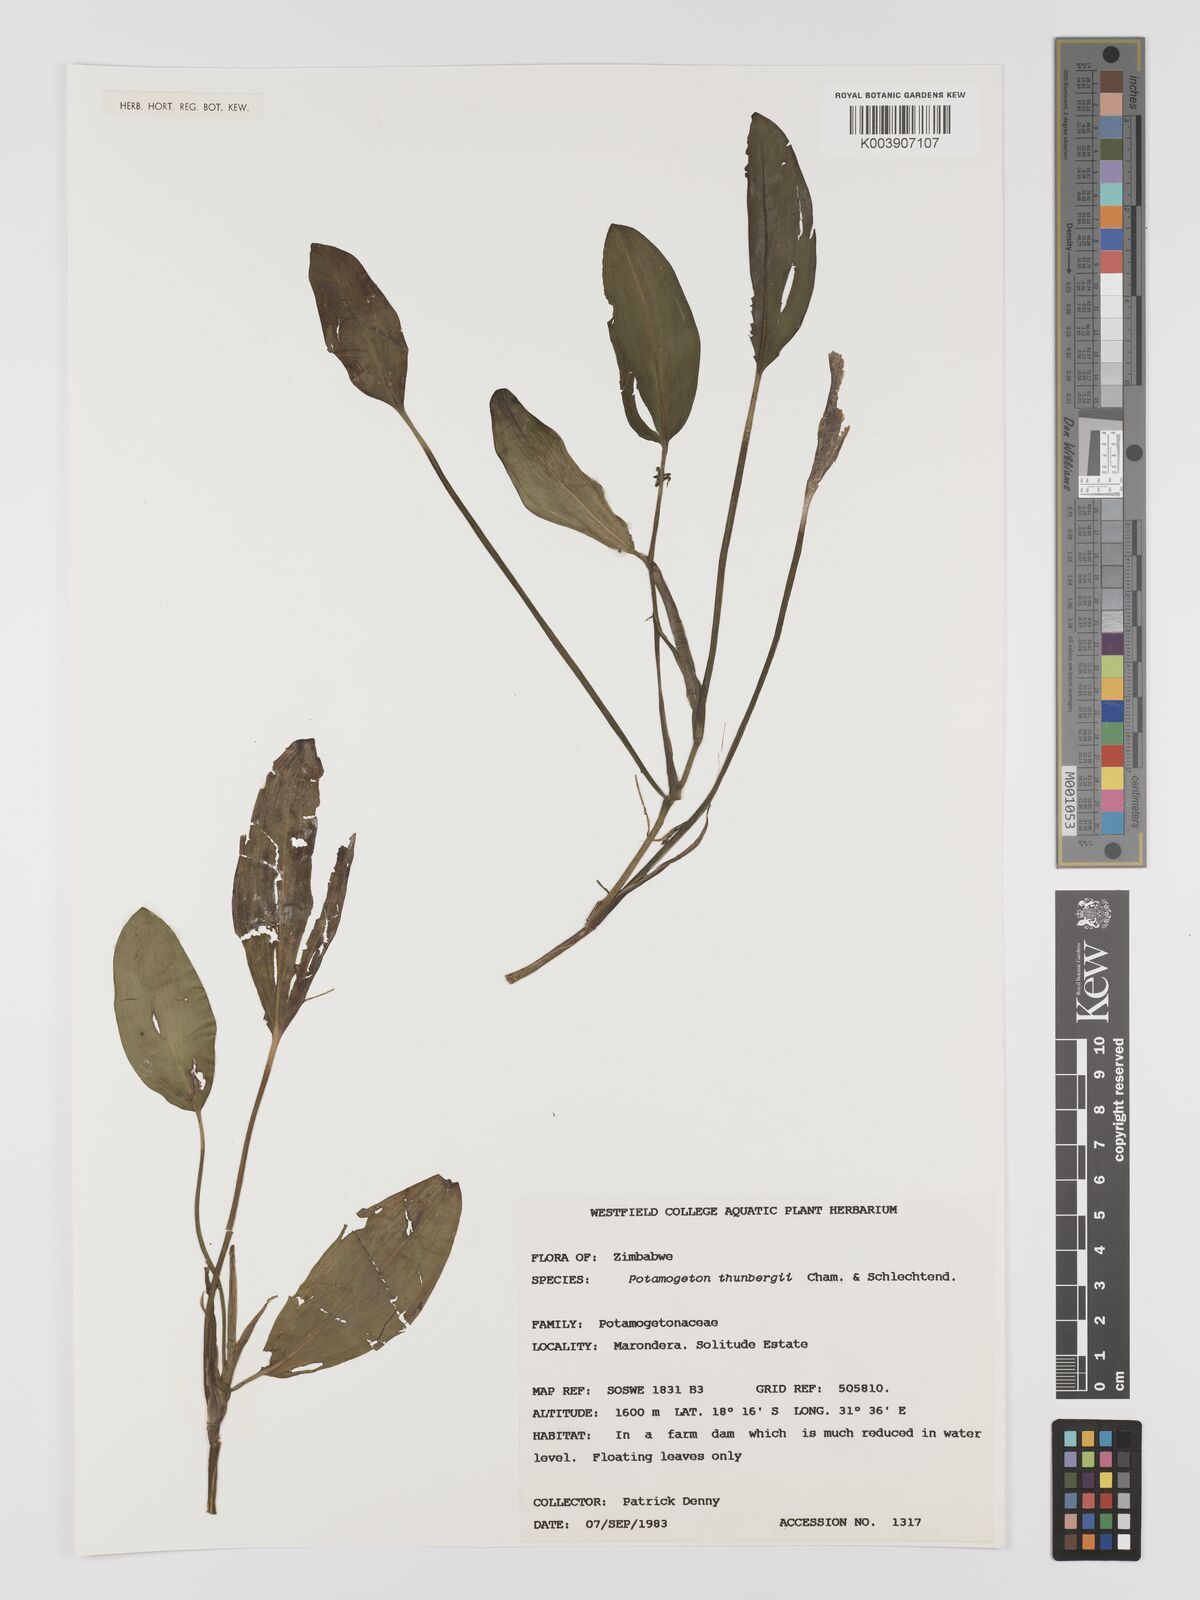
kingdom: Plantae
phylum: Tracheophyta
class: Liliopsida
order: Alismatales
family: Potamogetonaceae
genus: Potamogeton
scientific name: Potamogeton nodosus
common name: Loddon pondweed
